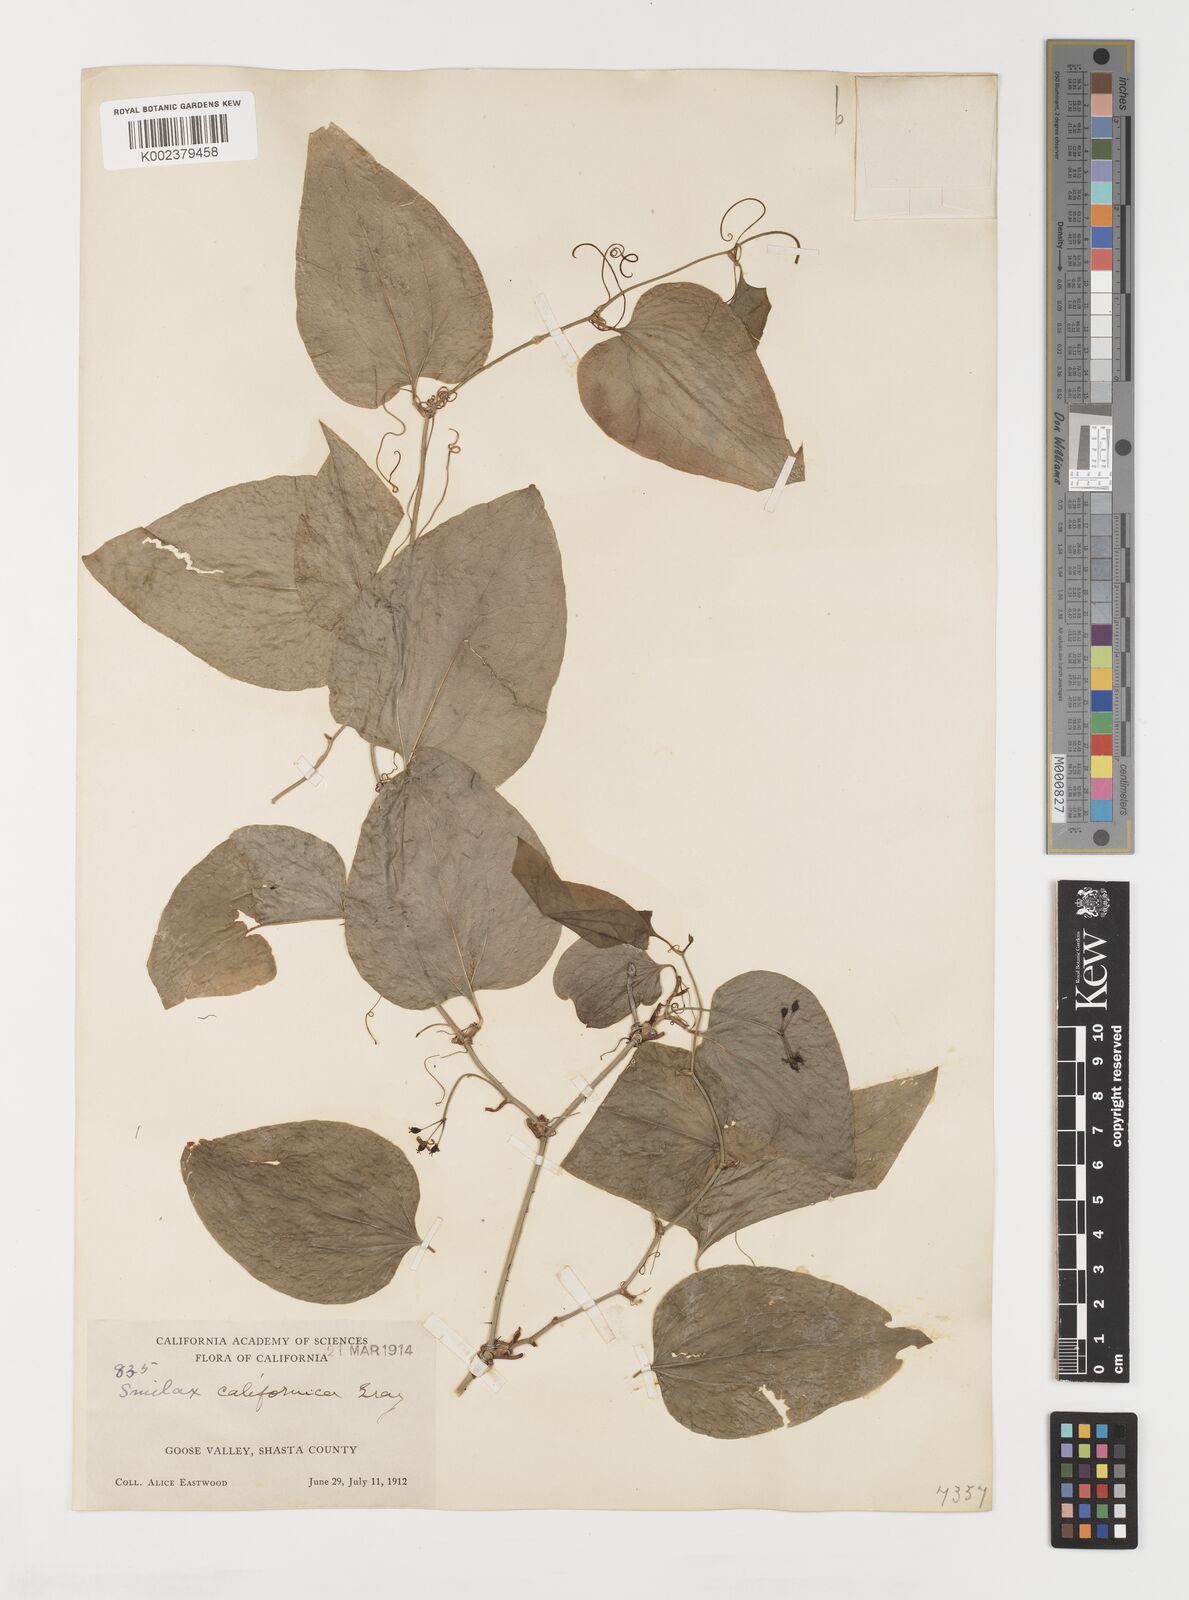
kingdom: Plantae
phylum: Tracheophyta
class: Liliopsida
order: Liliales
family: Smilacaceae
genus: Smilax
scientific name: Smilax californica
